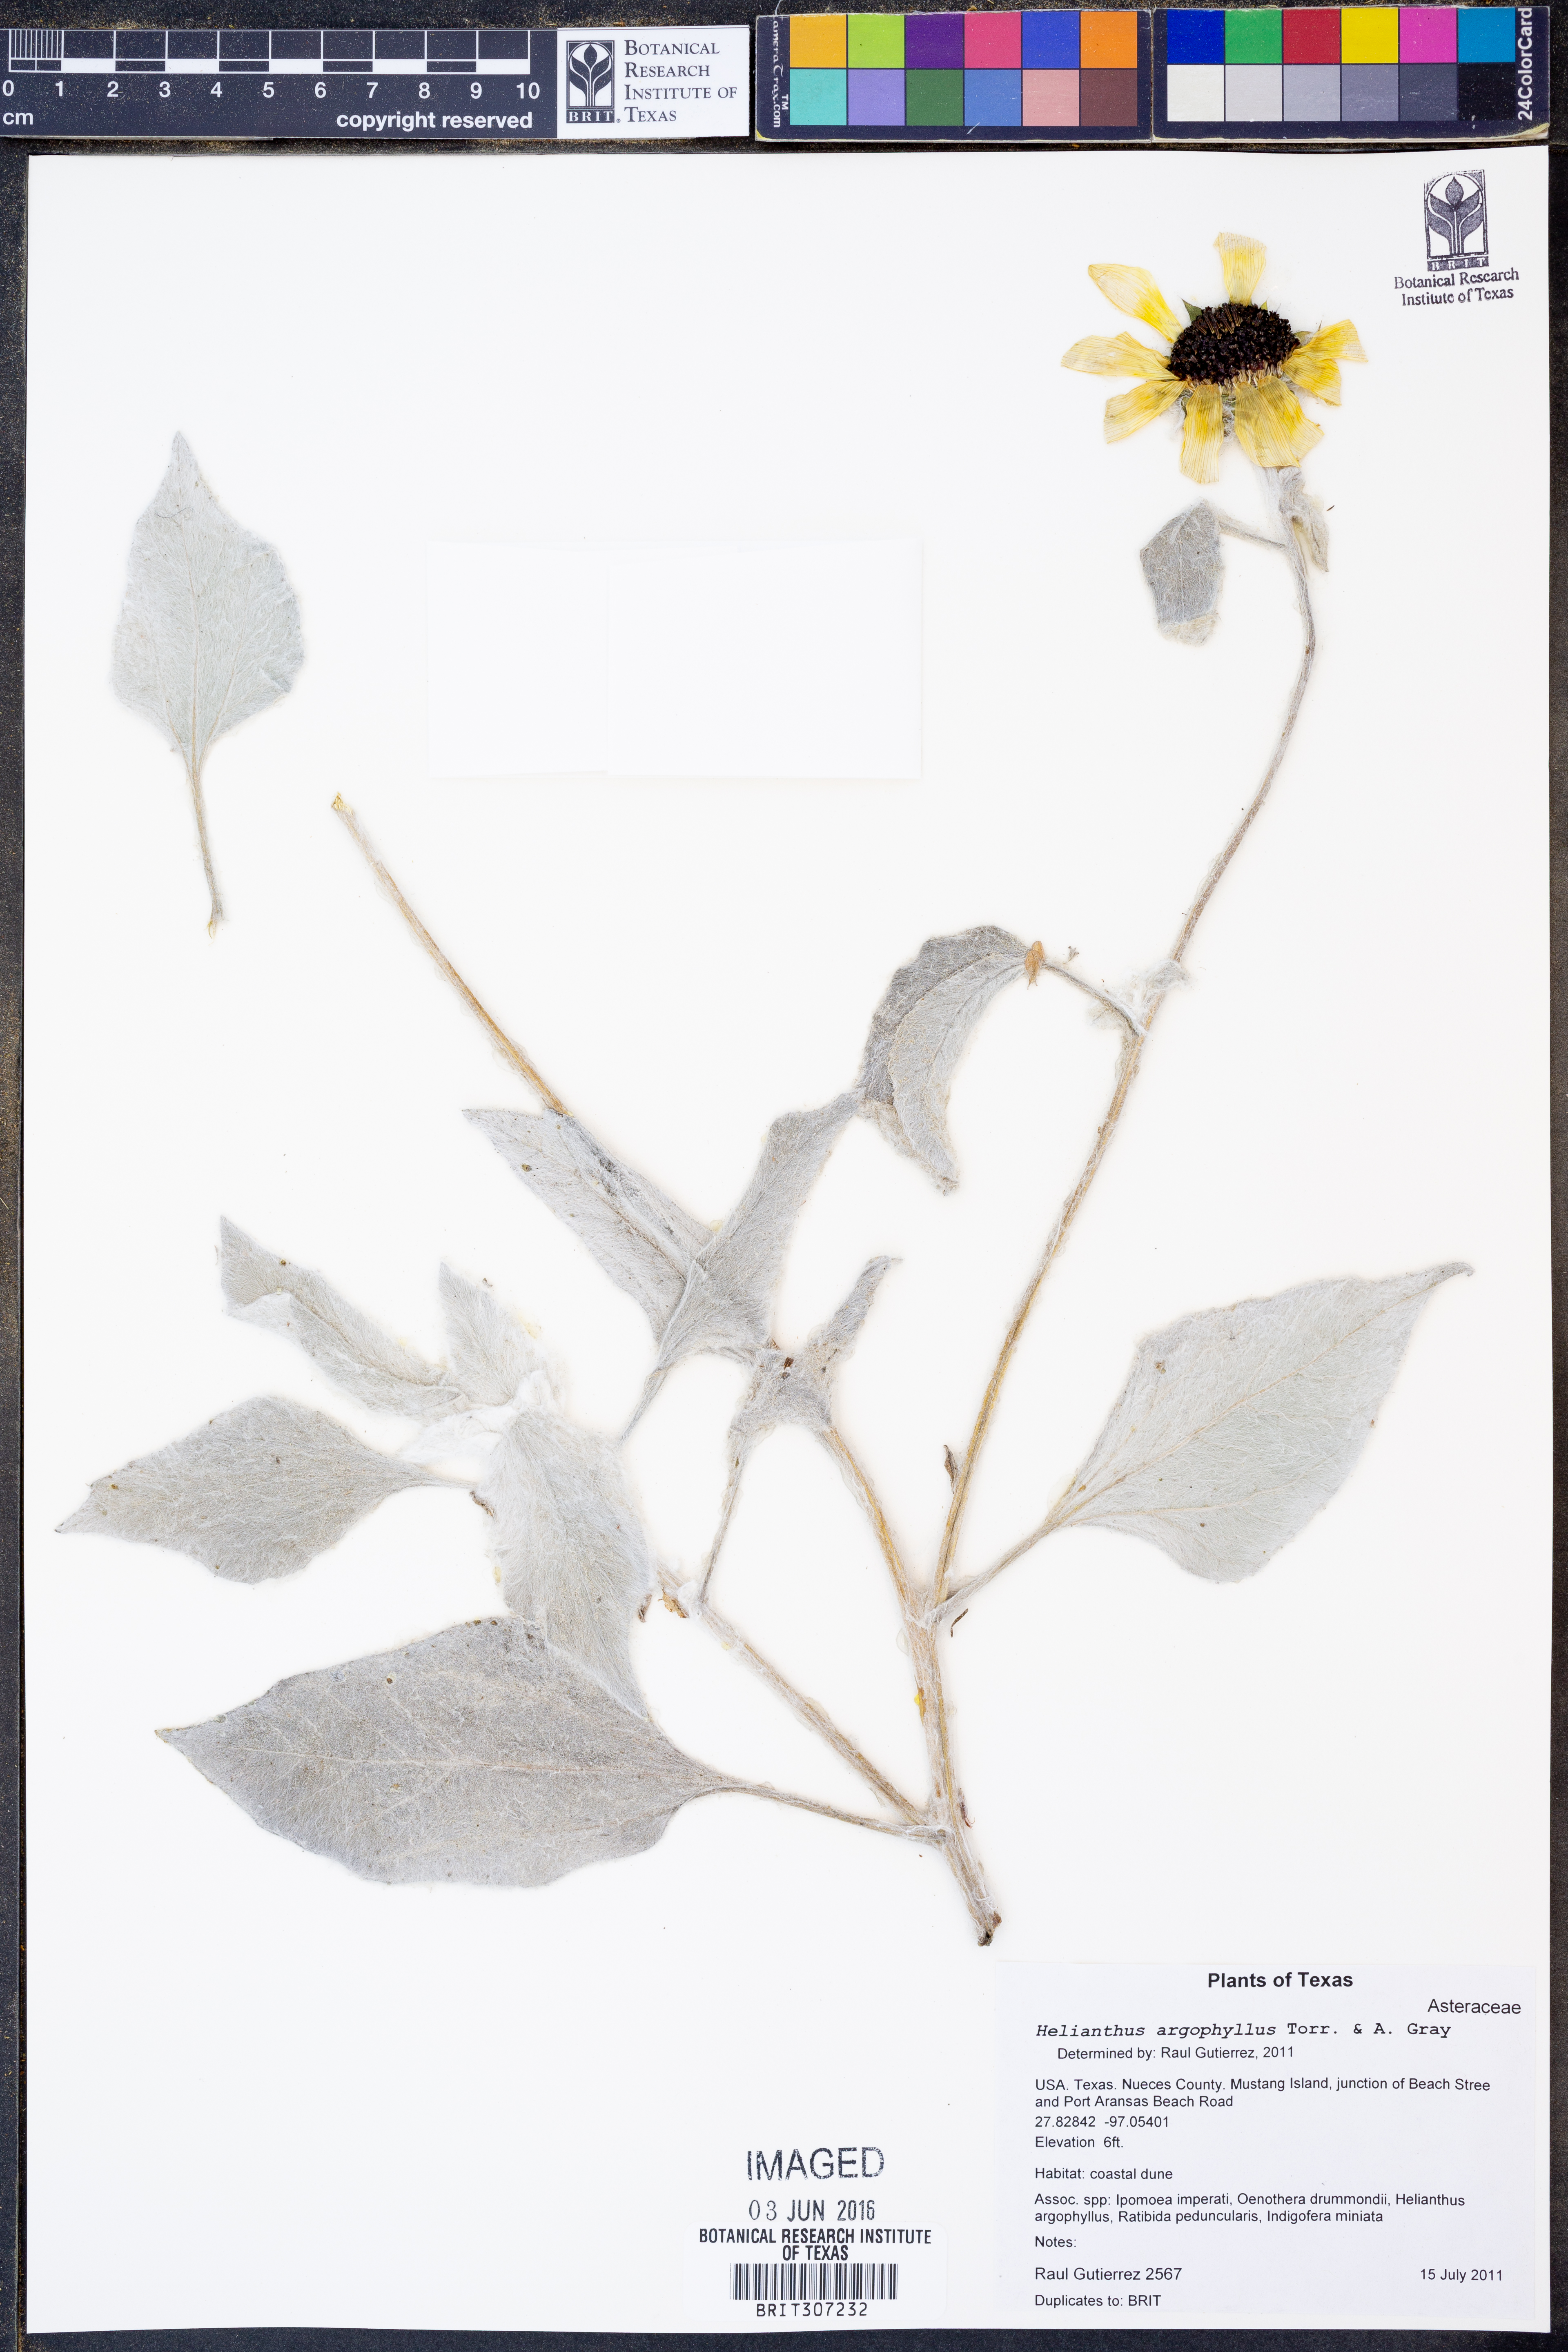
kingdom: Plantae
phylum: Tracheophyta
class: Magnoliopsida
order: Asterales
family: Asteraceae
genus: Helianthus
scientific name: Helianthus argophyllus
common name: Silverleaf sunflower
